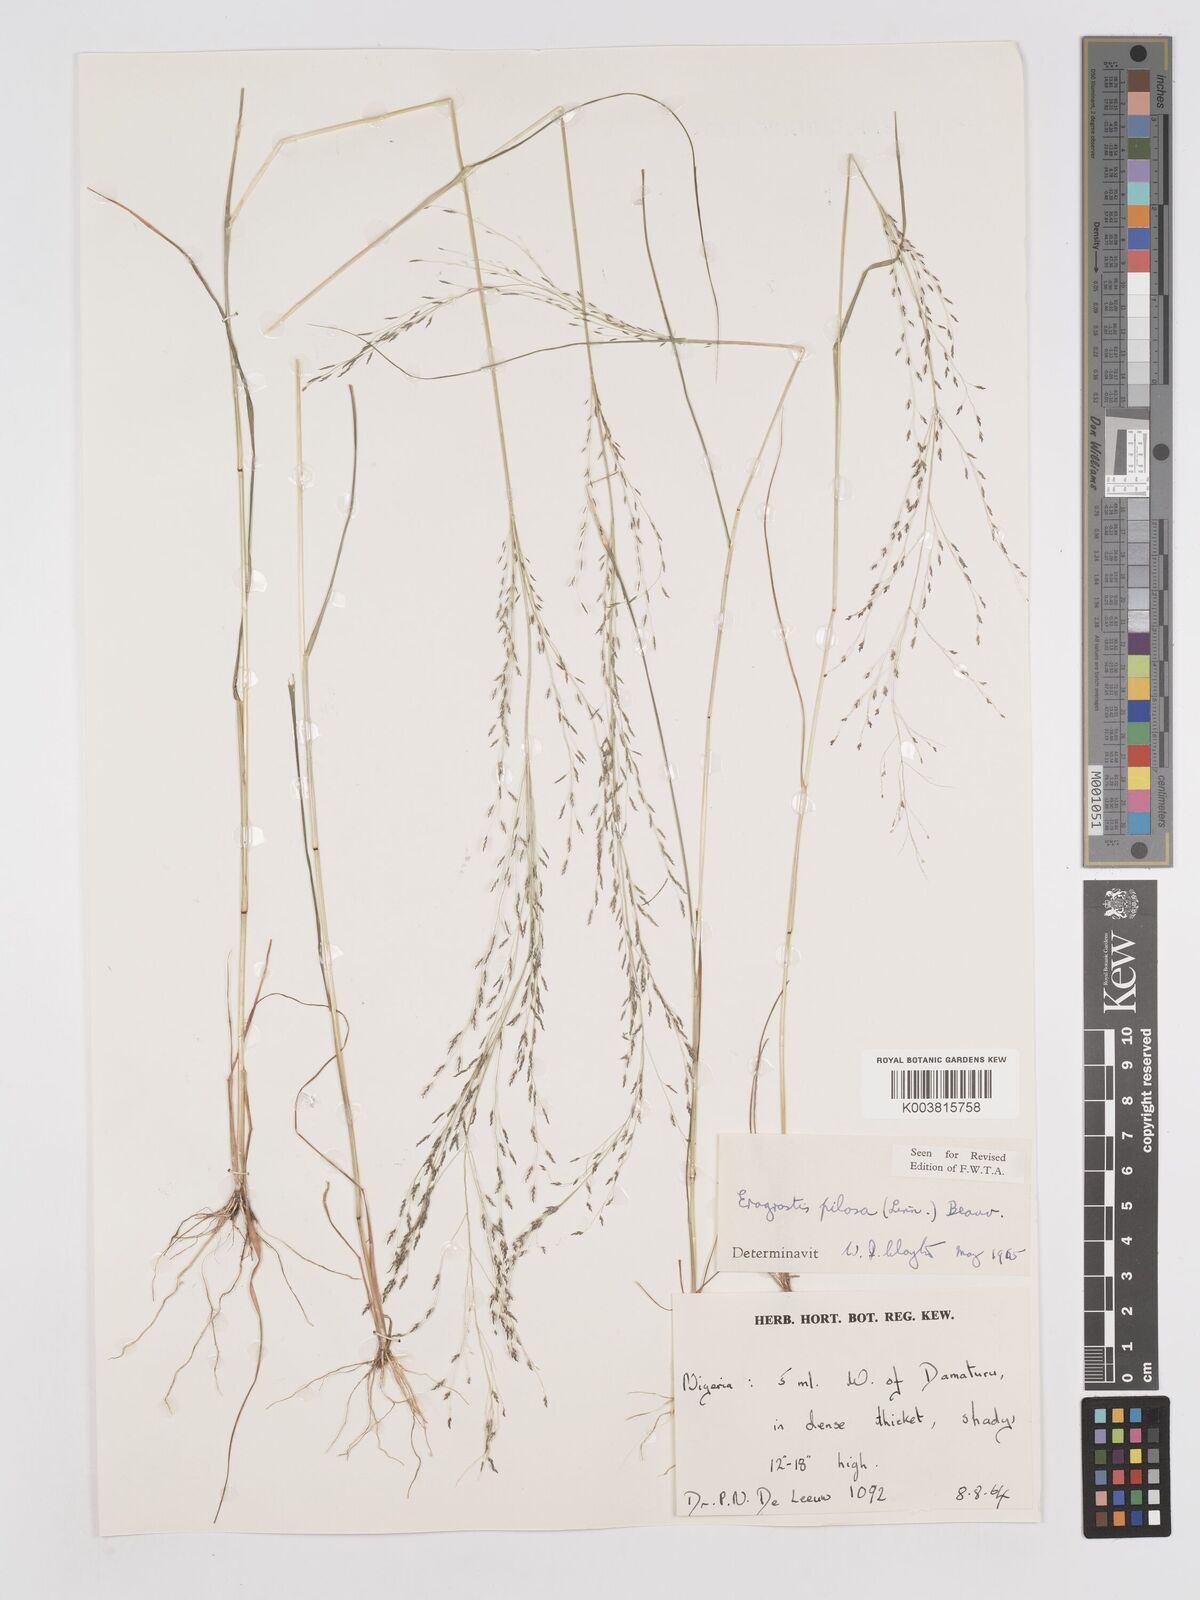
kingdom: Plantae
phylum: Tracheophyta
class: Liliopsida
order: Poales
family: Poaceae
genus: Eragrostis
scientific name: Eragrostis pilosa
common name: Indian lovegrass
